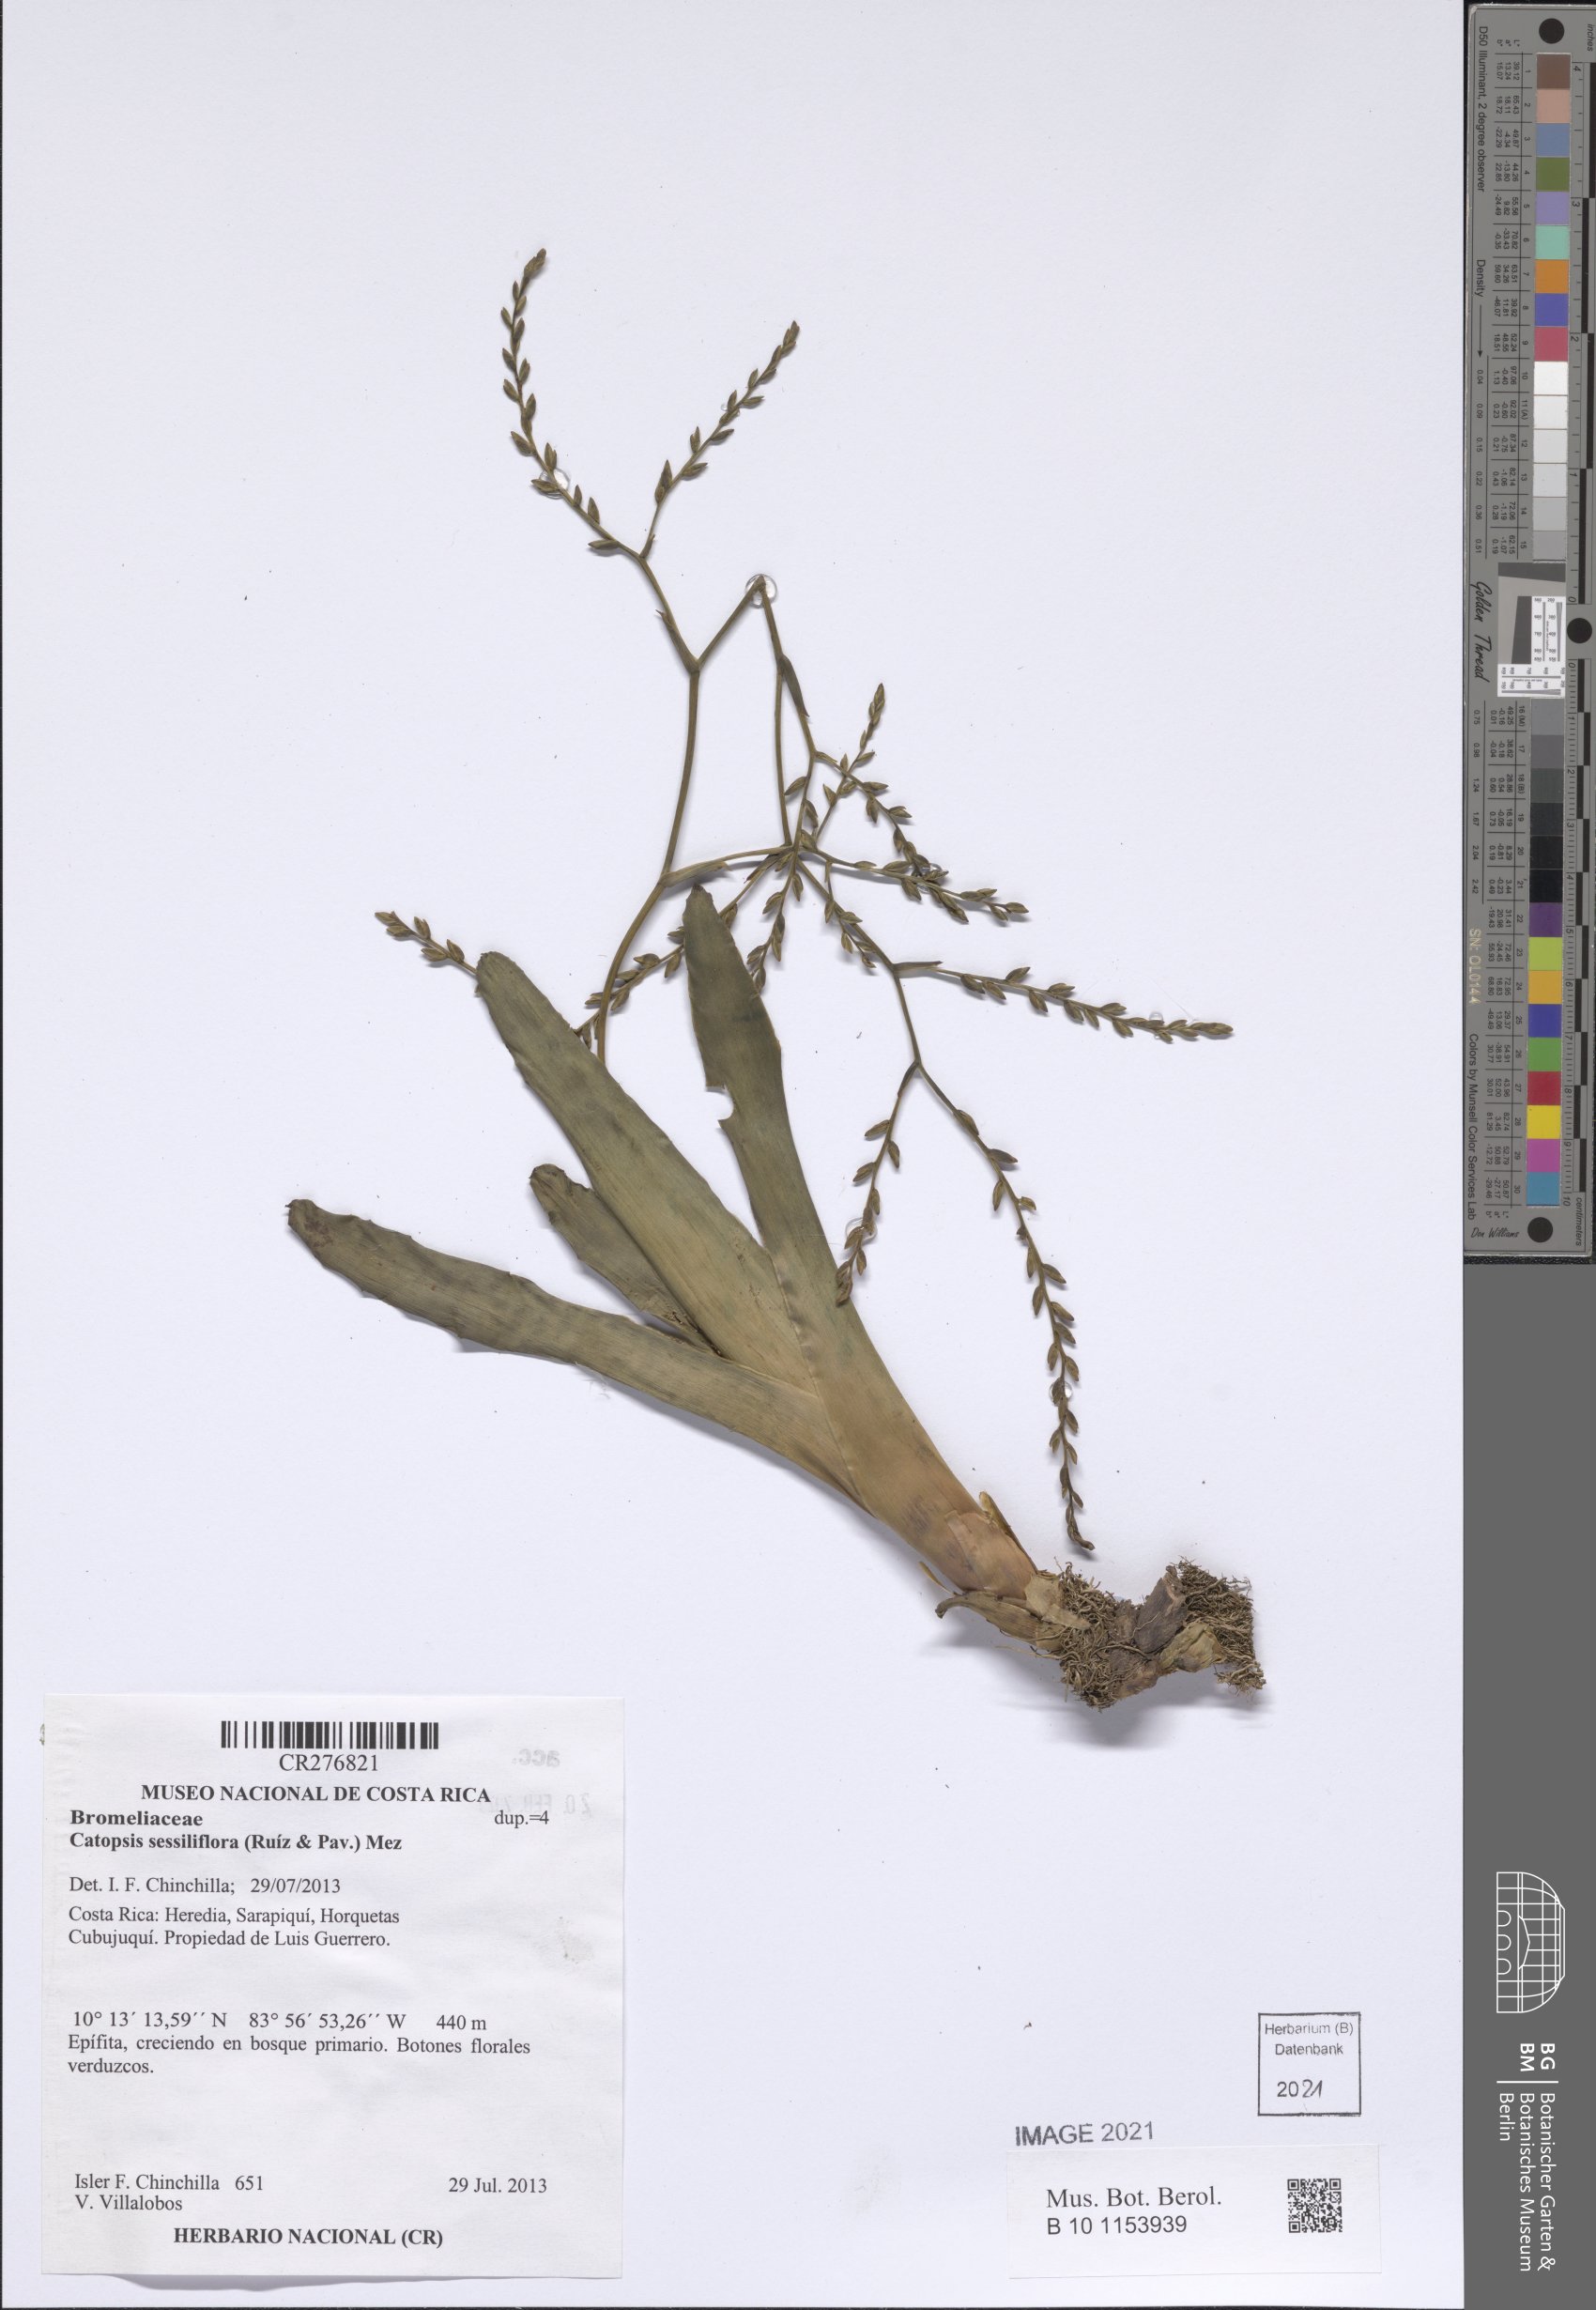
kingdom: Plantae
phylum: Tracheophyta
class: Liliopsida
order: Poales
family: Bromeliaceae
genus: Catopsis
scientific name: Catopsis sessiliflora
